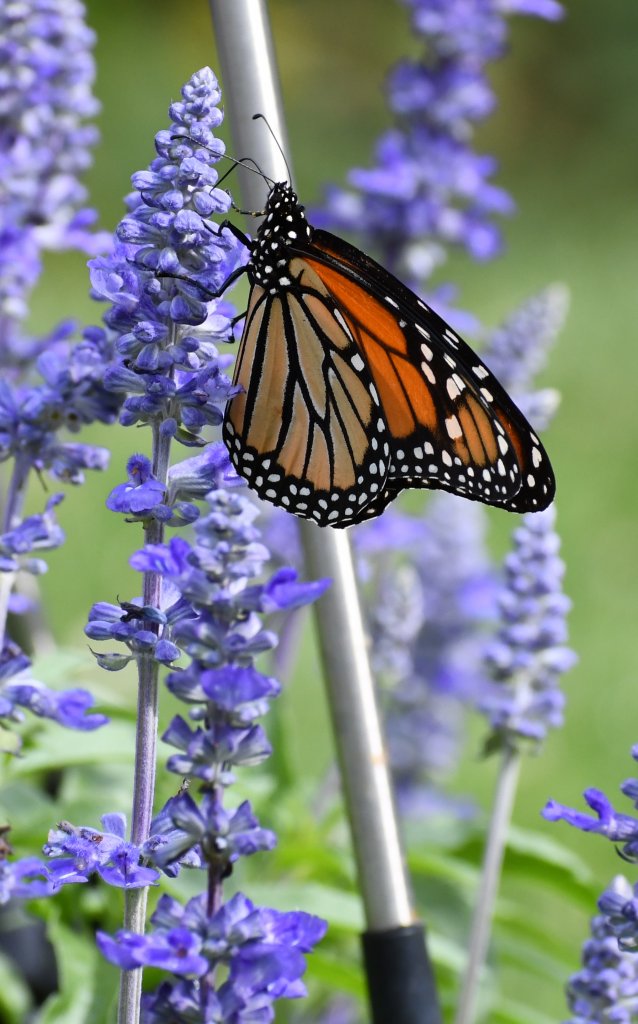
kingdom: Animalia
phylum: Arthropoda
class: Insecta
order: Lepidoptera
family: Nymphalidae
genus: Danaus
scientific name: Danaus plexippus
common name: Monarch
